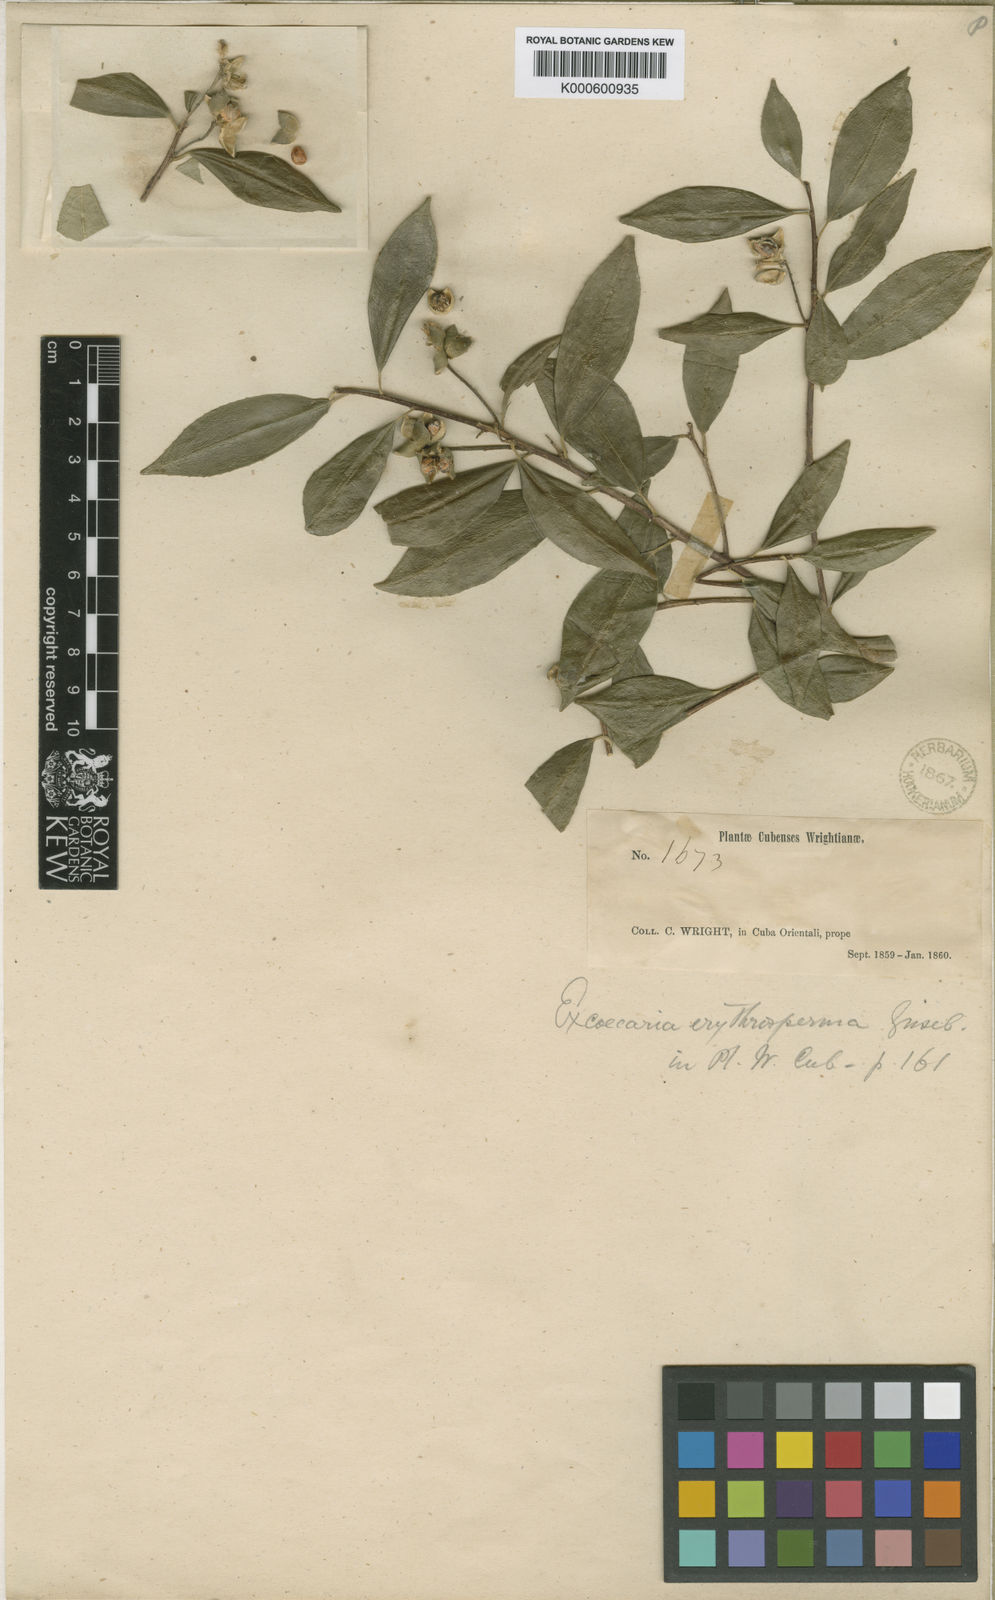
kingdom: Plantae
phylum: Tracheophyta
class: Magnoliopsida
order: Malpighiales
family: Euphorbiaceae
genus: Sapium
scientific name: Sapium
